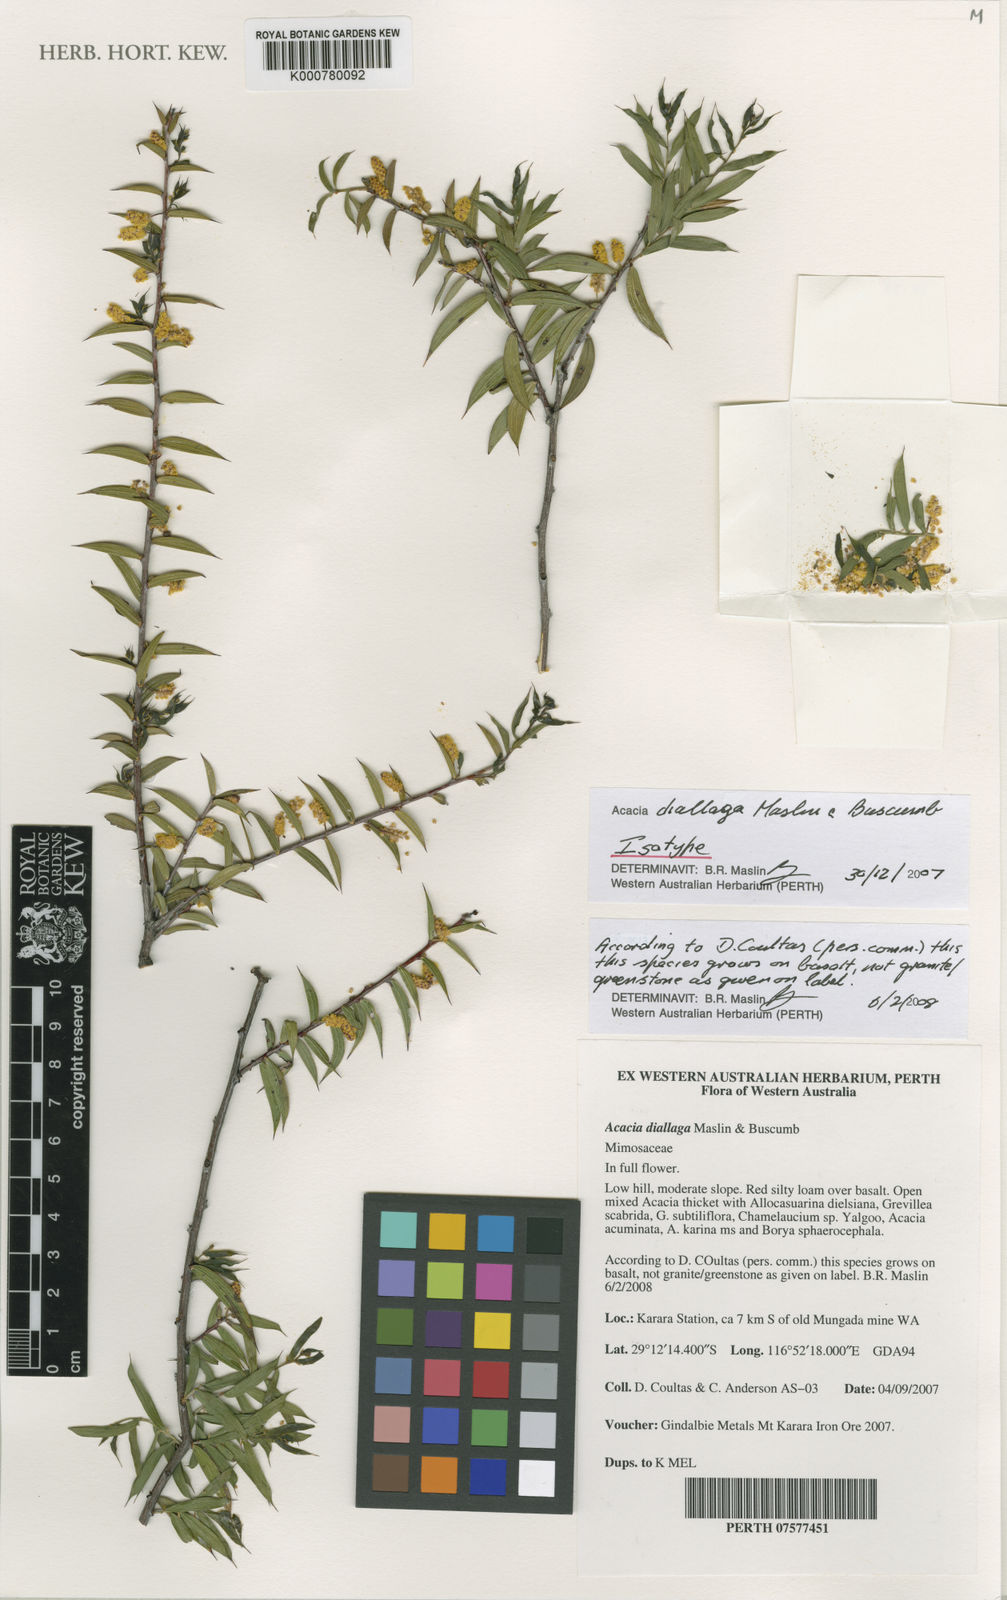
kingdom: Plantae
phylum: Tracheophyta
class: Magnoliopsida
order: Fabales
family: Fabaceae
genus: Acacia
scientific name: Acacia diallaga
